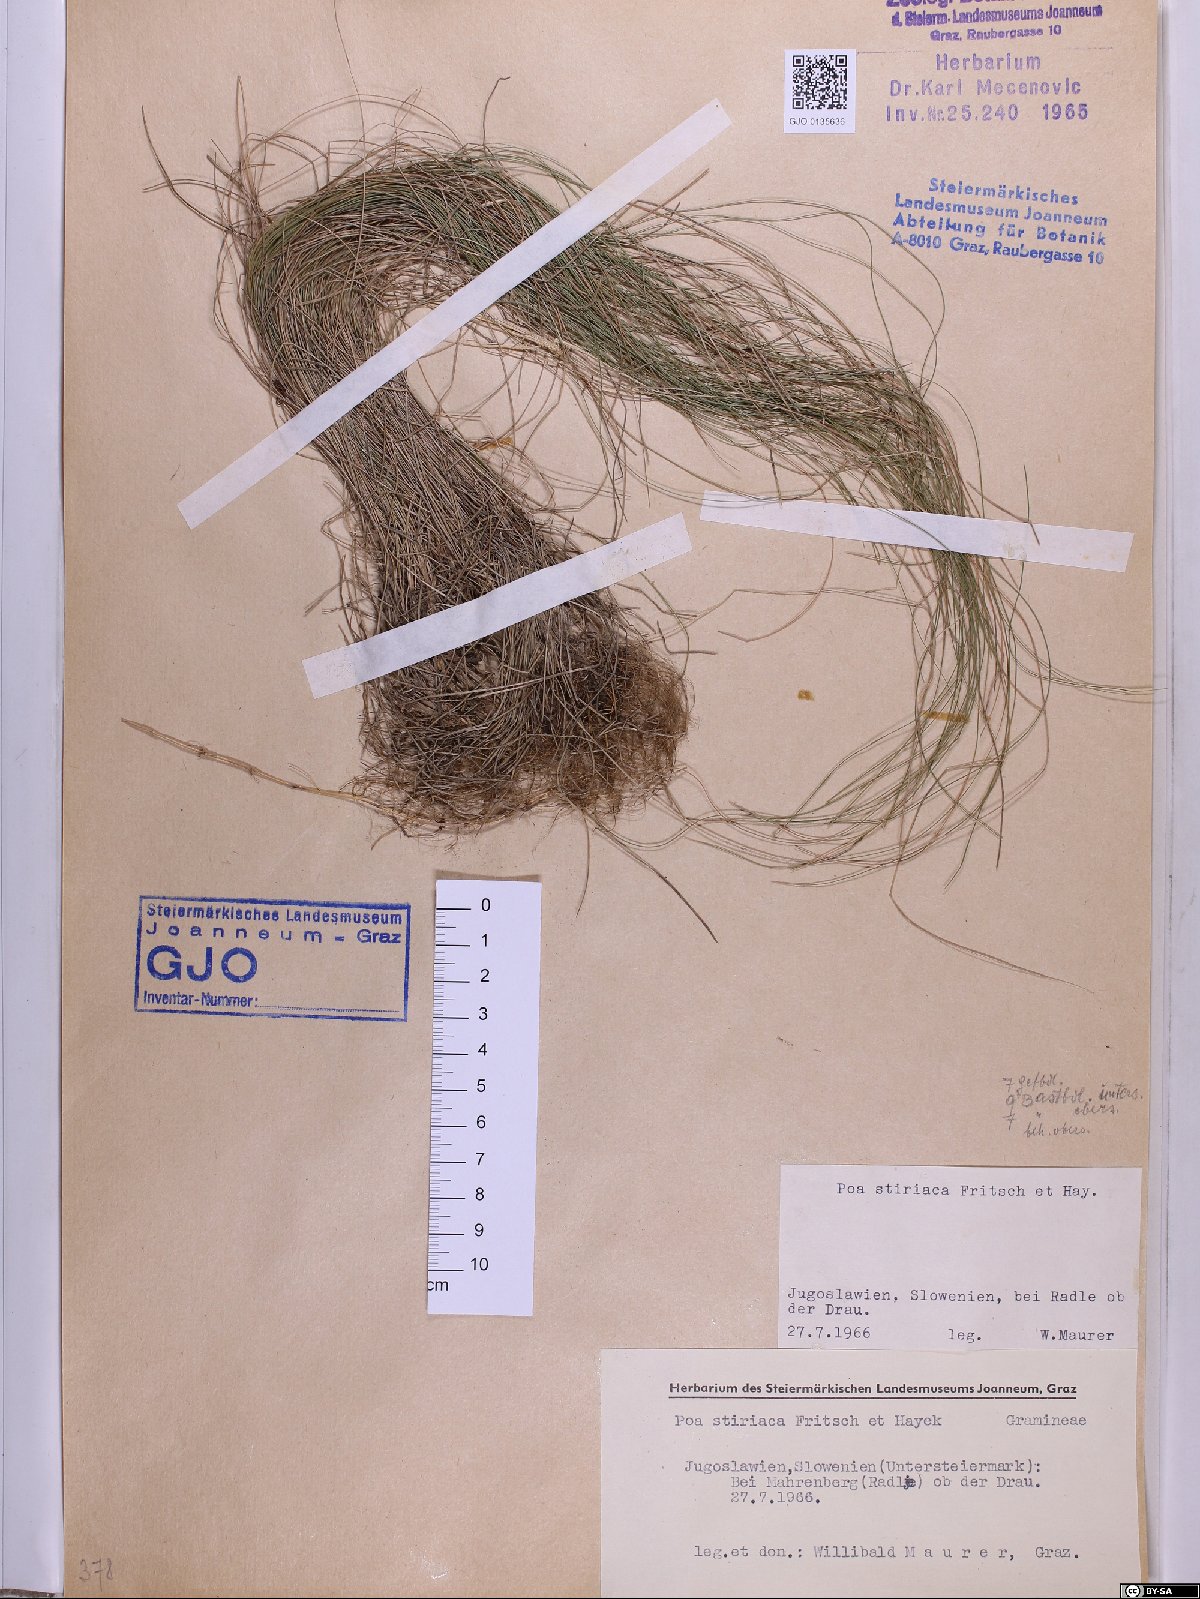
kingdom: Plantae
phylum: Tracheophyta
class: Liliopsida
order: Poales
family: Poaceae
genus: Poa
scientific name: Poa stiriaca
